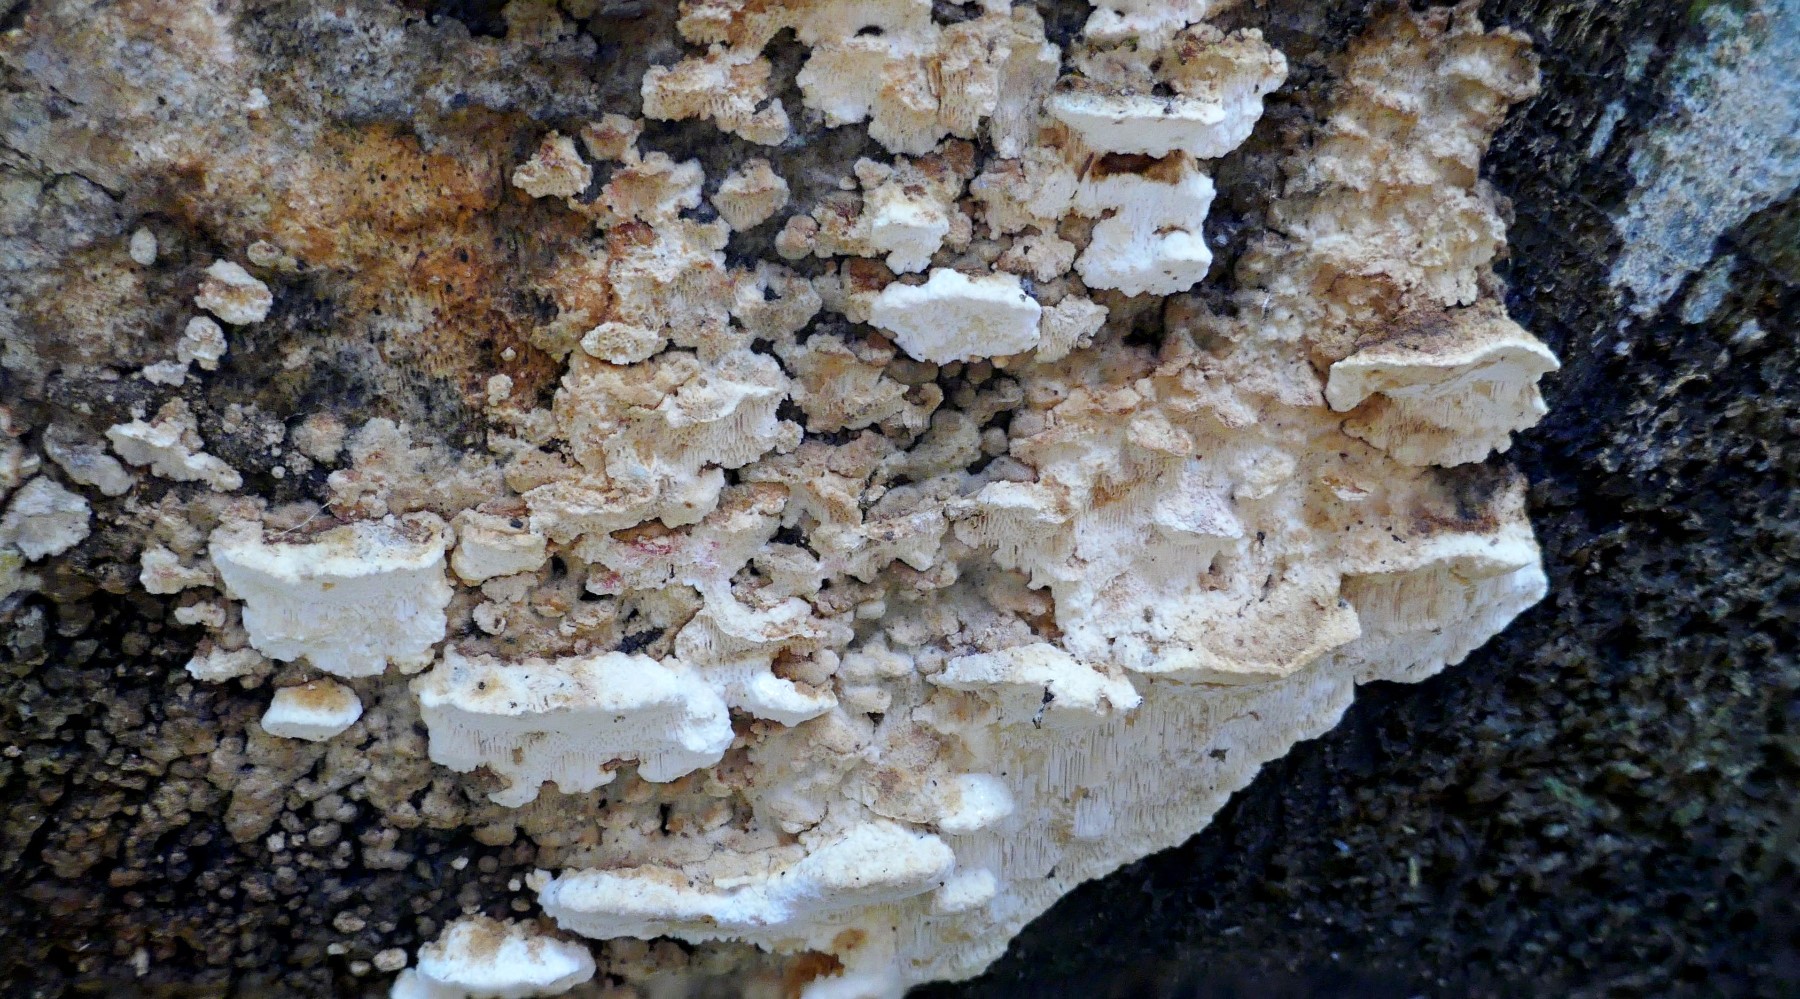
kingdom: Fungi
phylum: Basidiomycota
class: Agaricomycetes
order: Polyporales
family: Fomitopsidaceae
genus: Neoantrodia
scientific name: Neoantrodia serialis
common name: række-sejporesvamp
